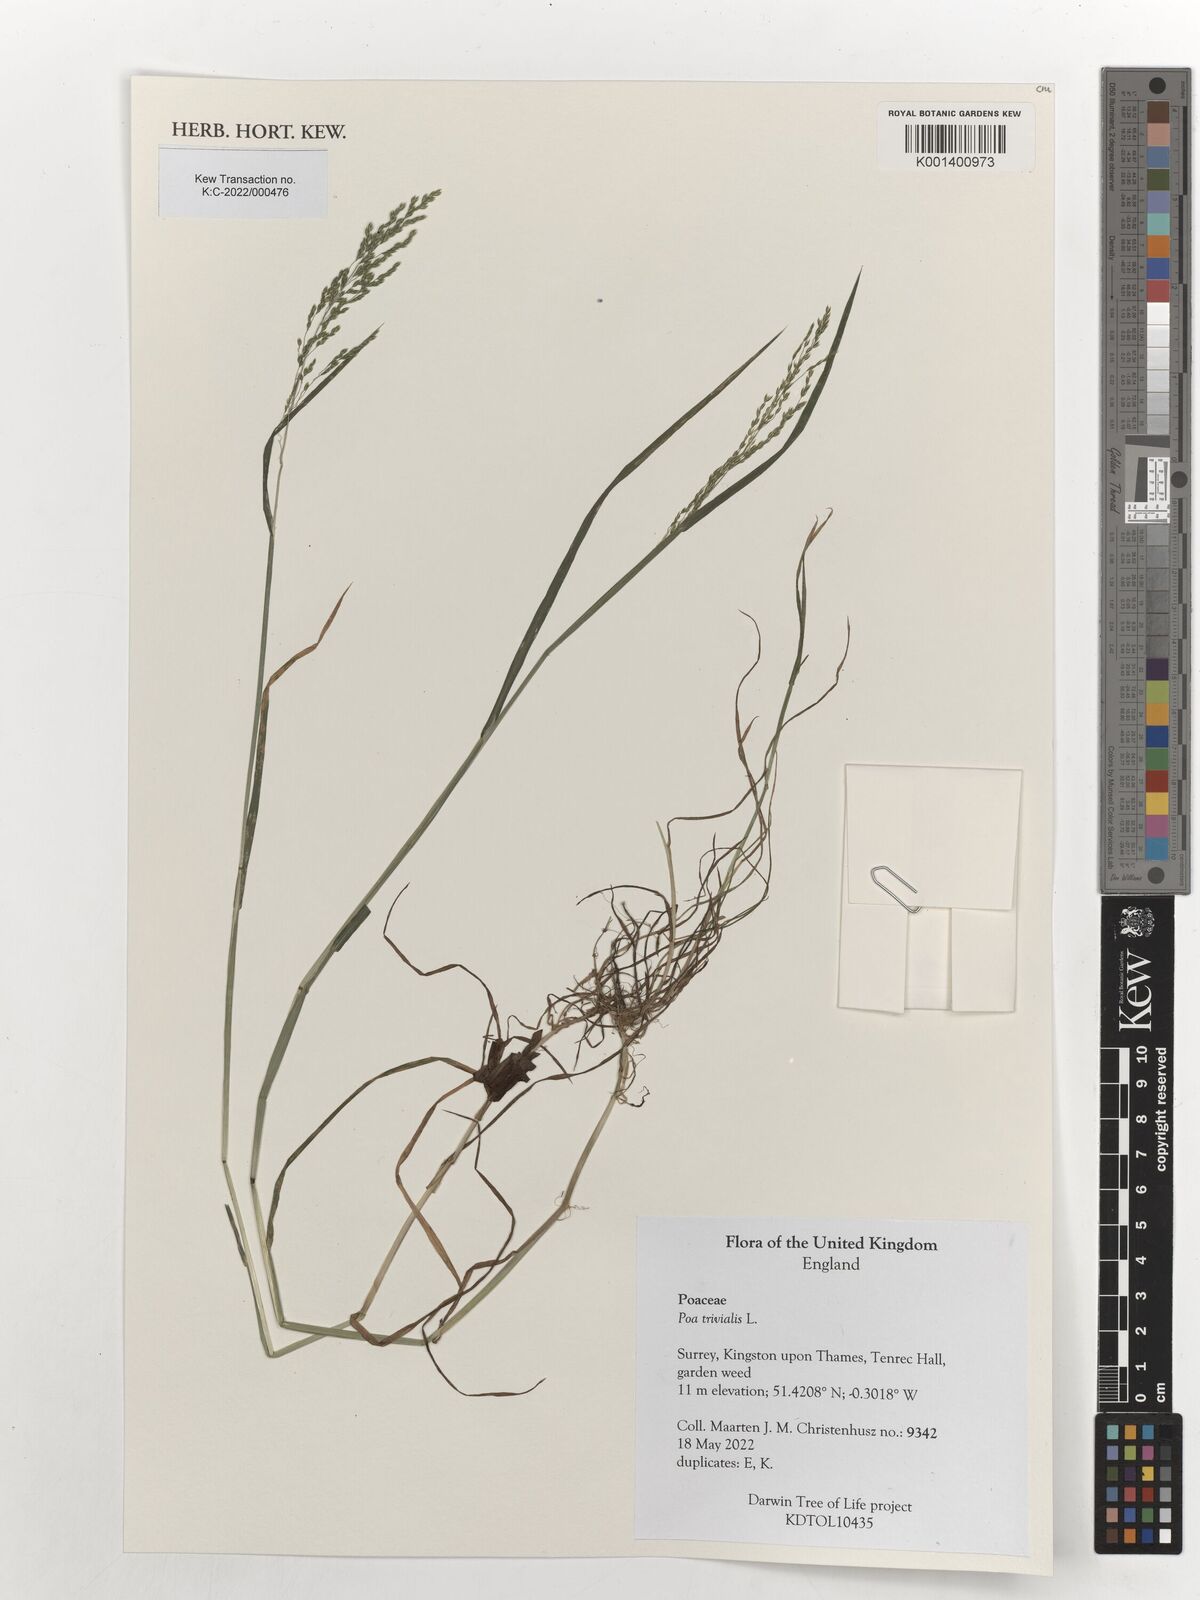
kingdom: Plantae
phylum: Tracheophyta
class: Liliopsida
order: Poales
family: Poaceae
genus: Poa
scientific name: Poa trivialis
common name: Rough bluegrass
